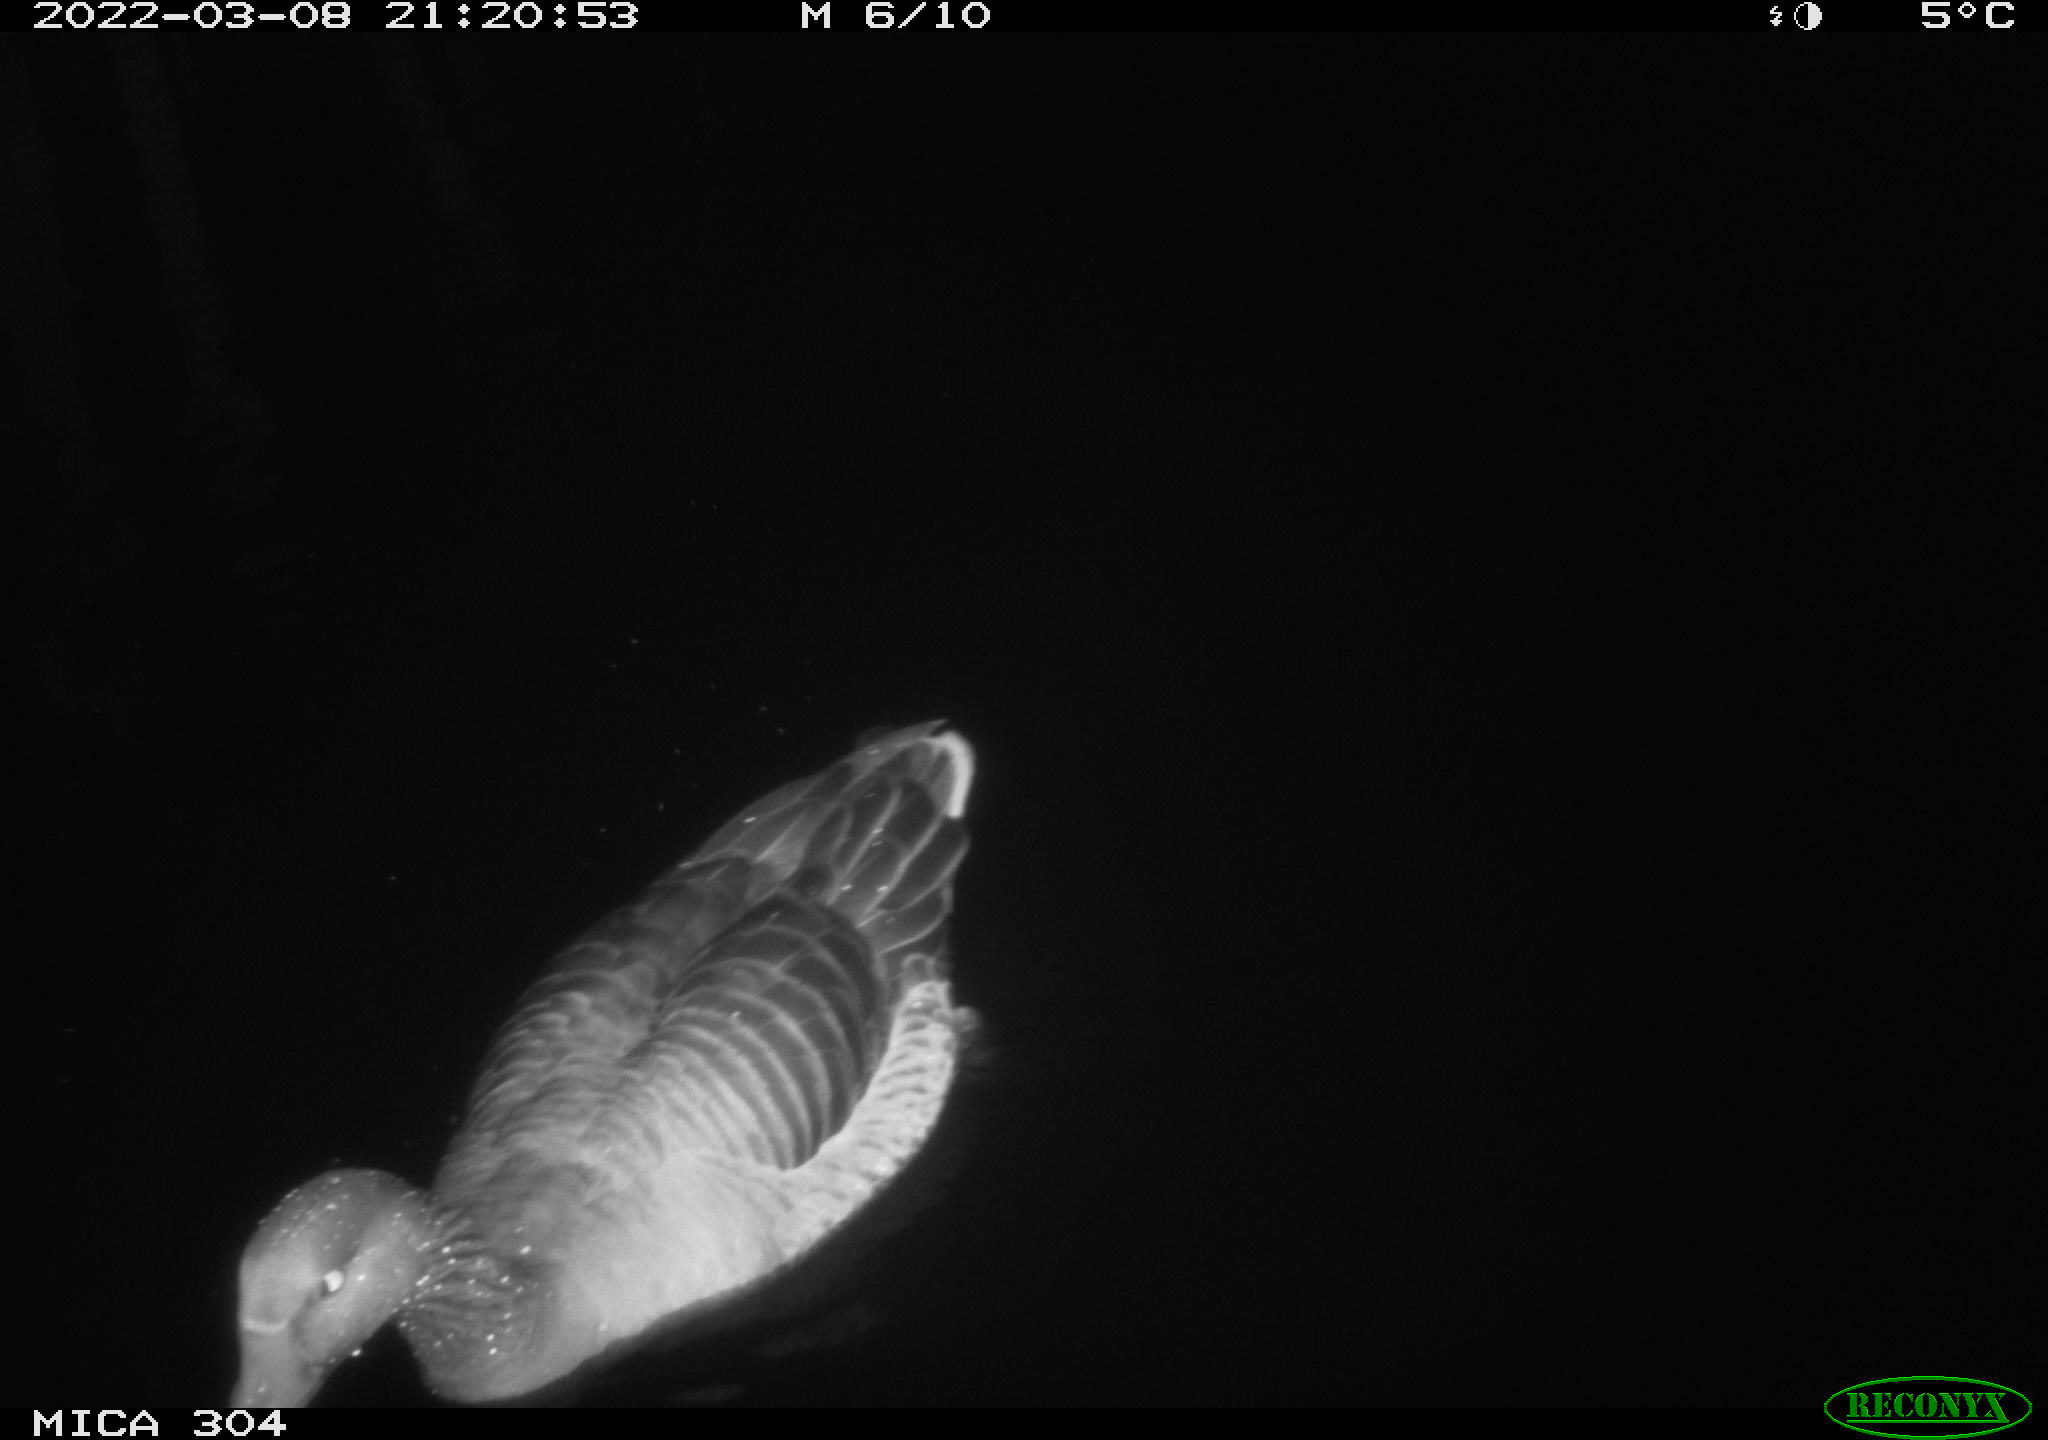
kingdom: Animalia
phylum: Chordata
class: Aves
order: Anseriformes
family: Anatidae
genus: Mareca
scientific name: Mareca strepera
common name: Gadwall
